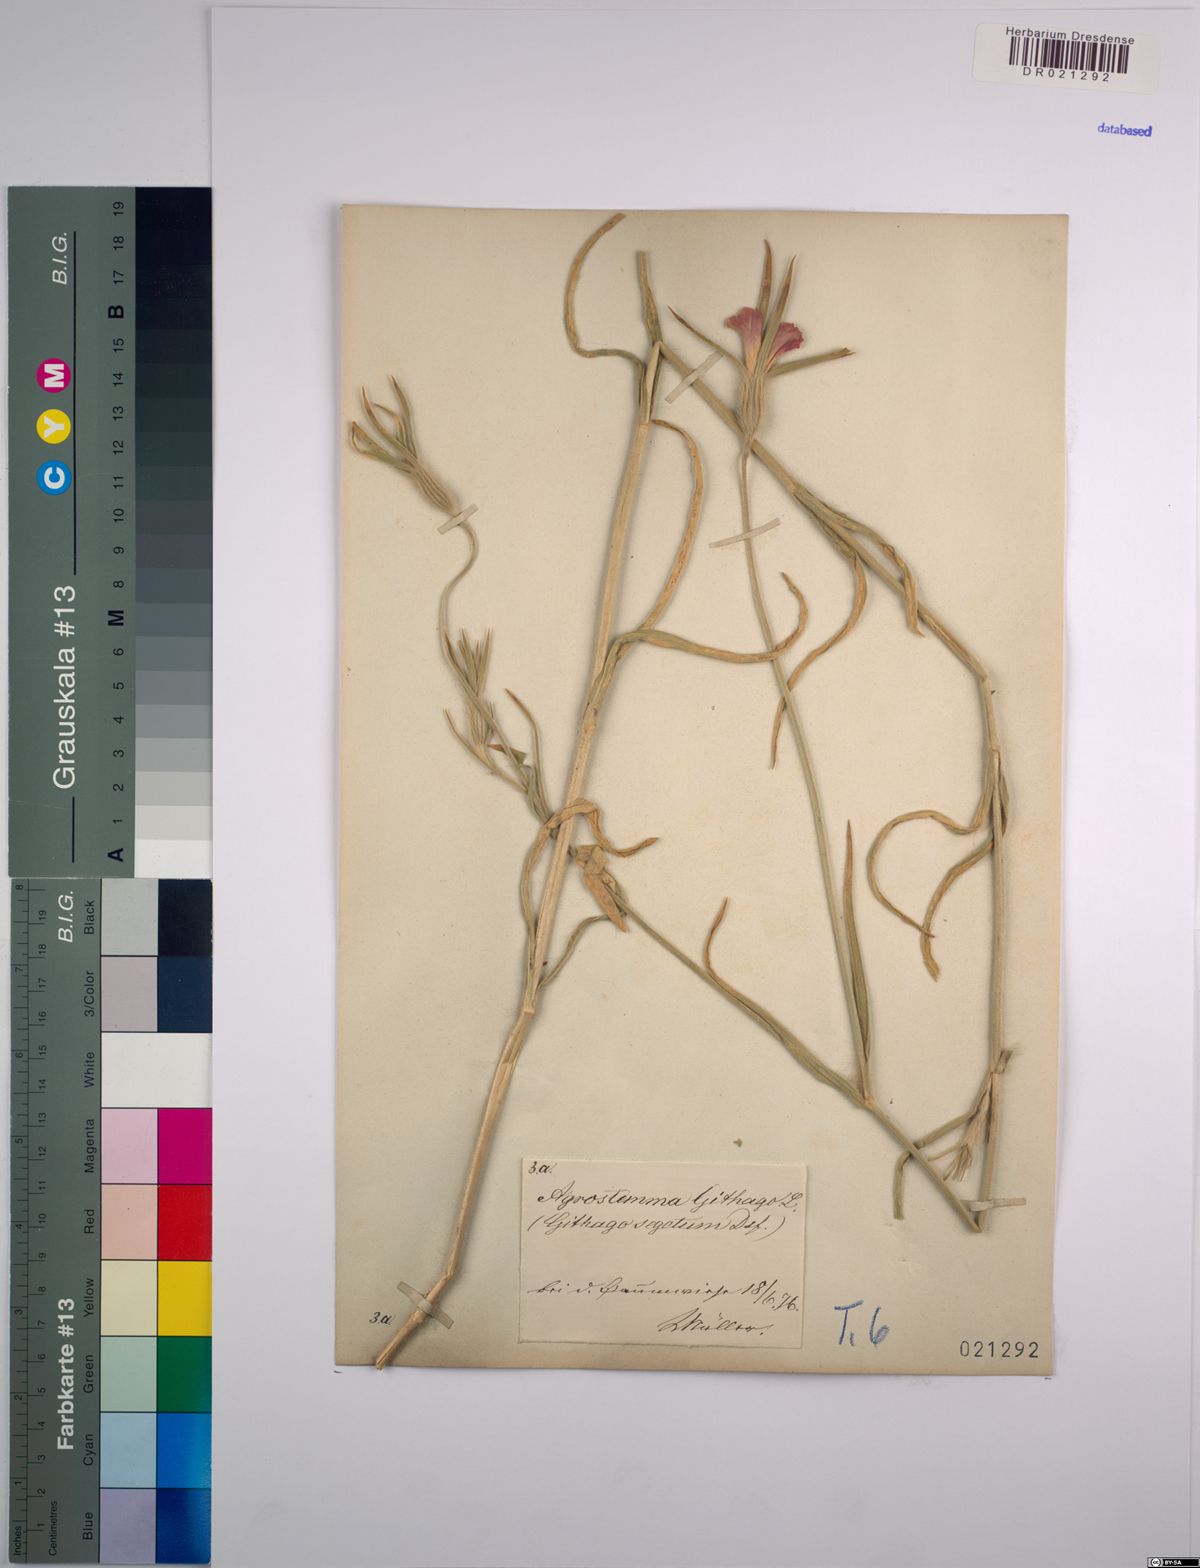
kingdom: Plantae
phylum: Tracheophyta
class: Magnoliopsida
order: Caryophyllales
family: Caryophyllaceae
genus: Agrostemma
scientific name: Agrostemma githago
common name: Common corncockle
